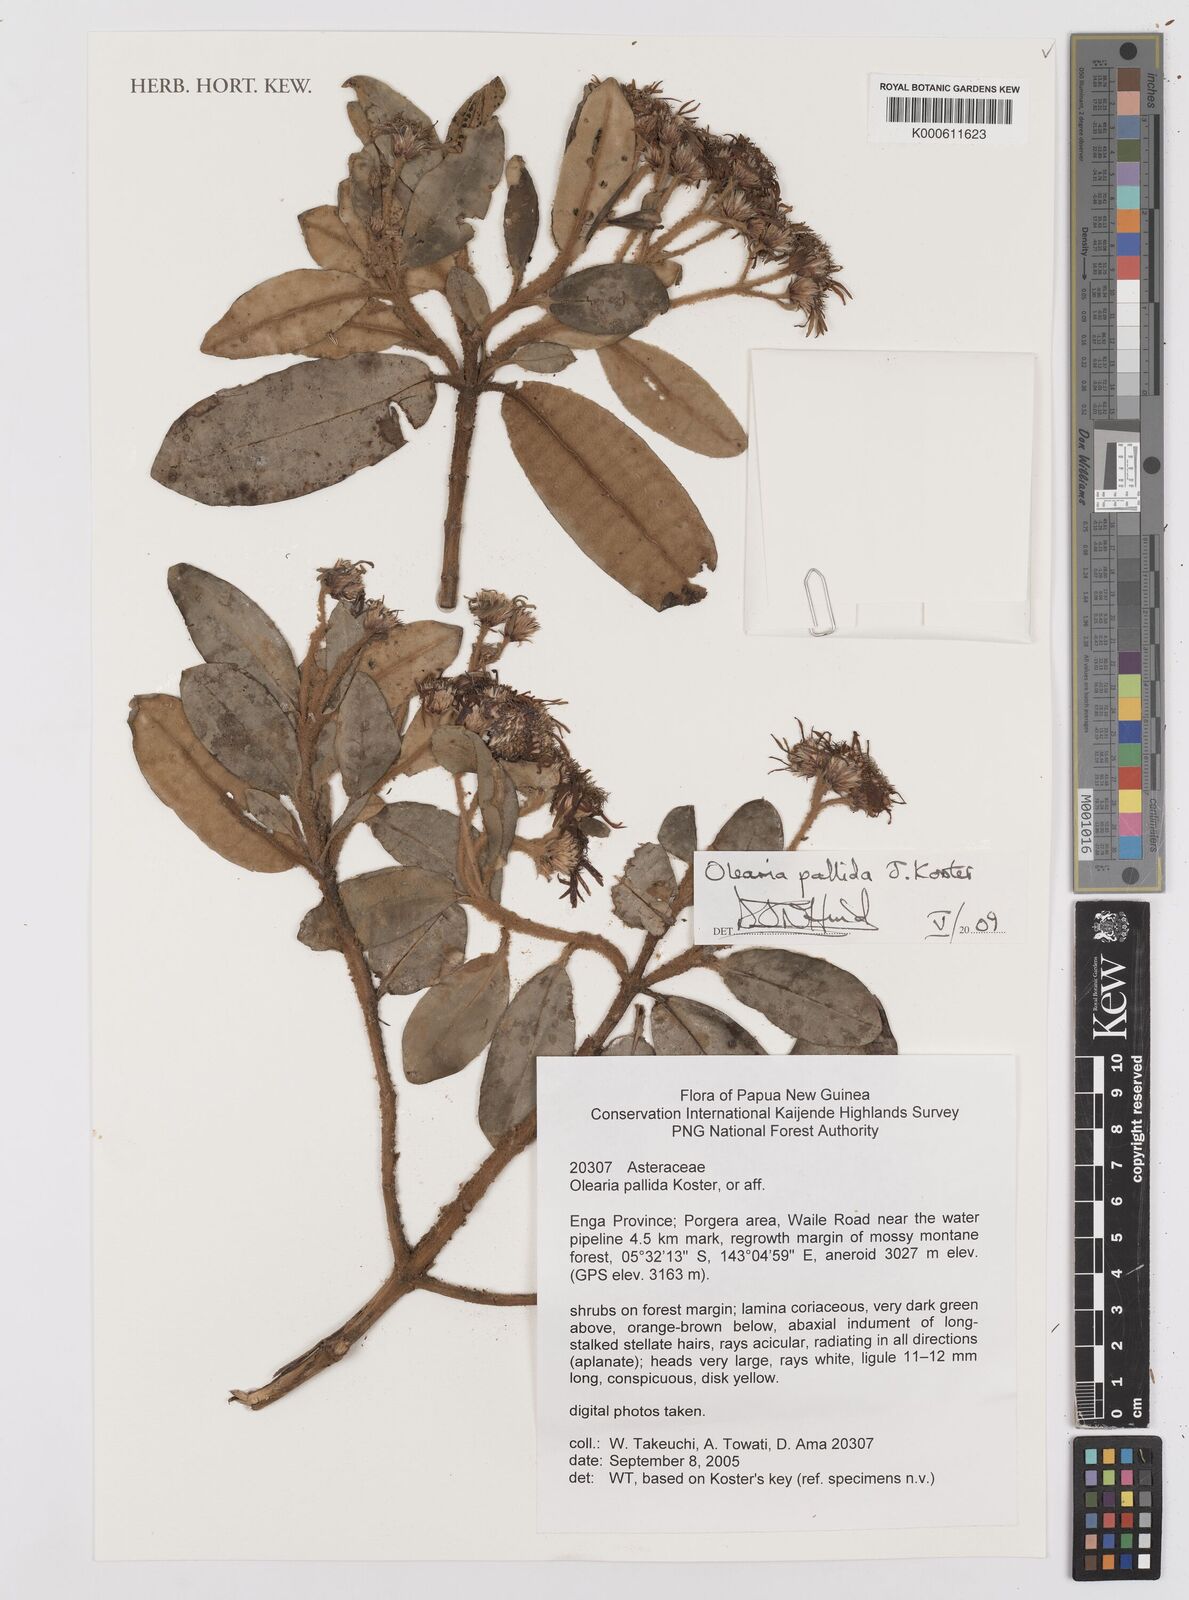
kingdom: Plantae
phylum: Tracheophyta
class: Magnoliopsida
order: Asterales
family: Asteraceae
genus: Olearia
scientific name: Olearia pallida
